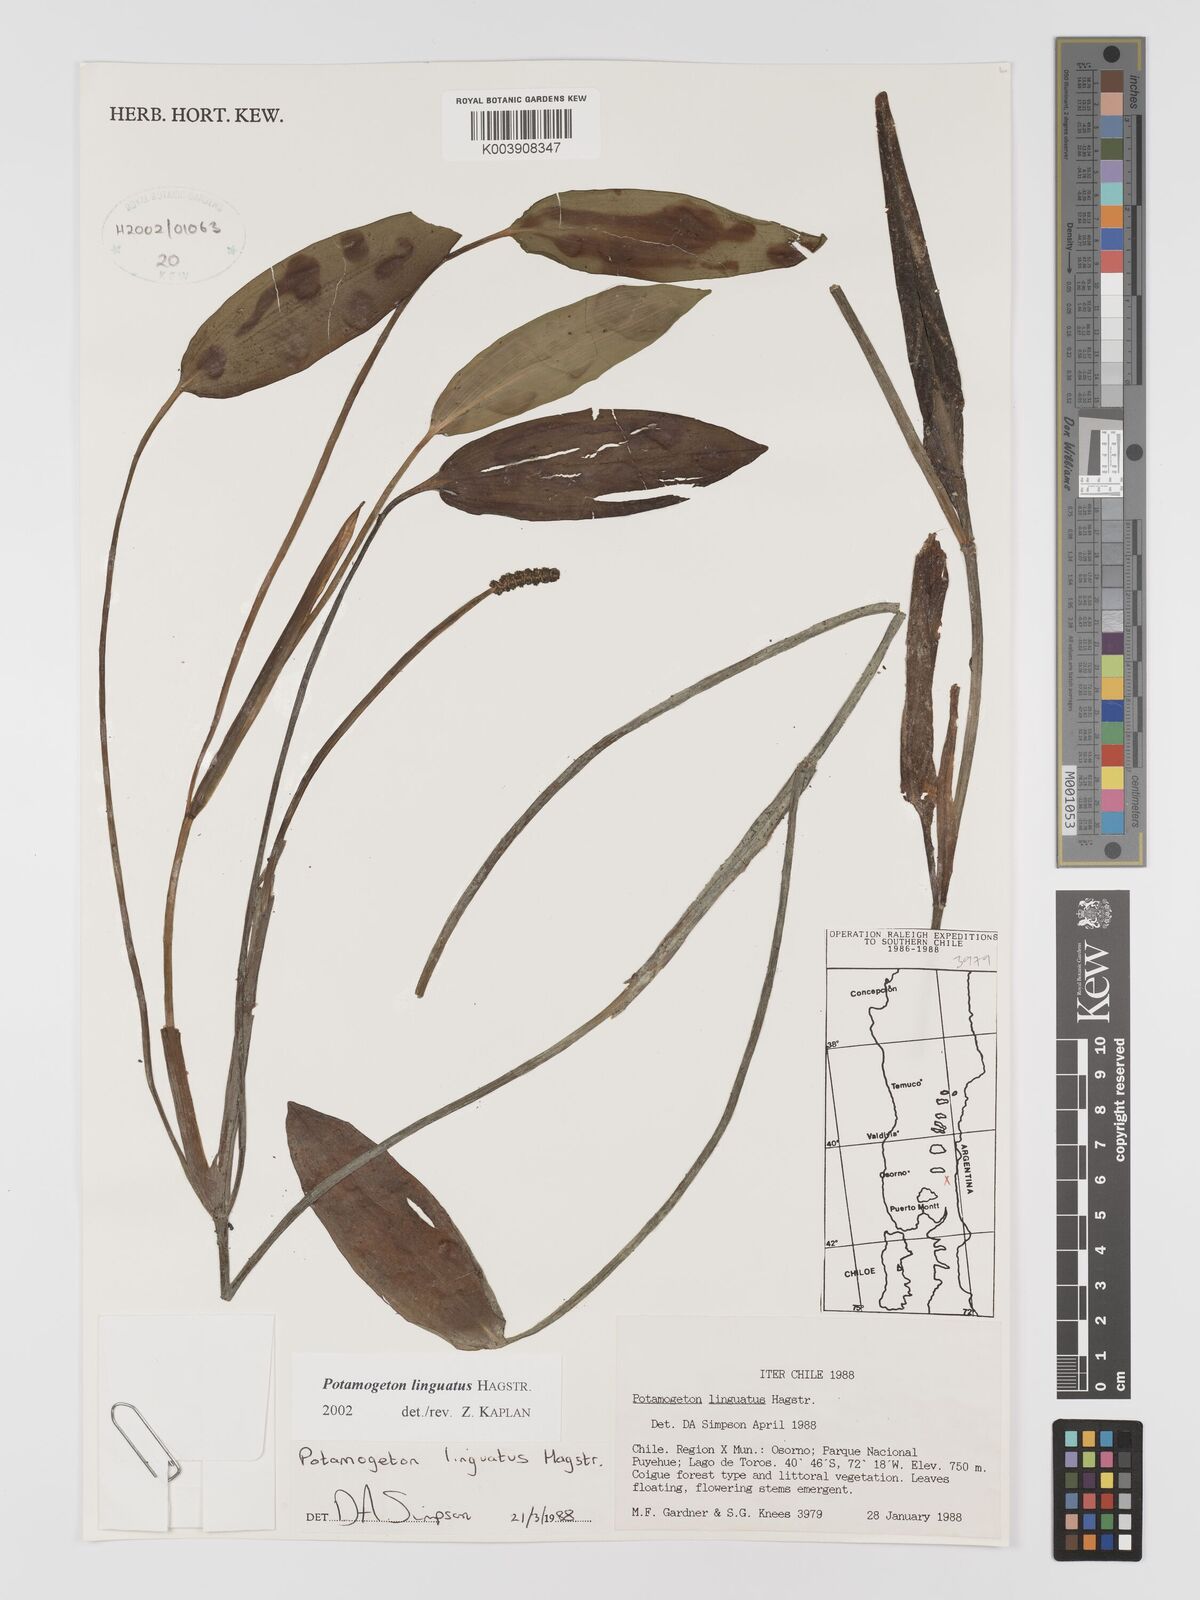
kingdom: Plantae
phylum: Tracheophyta
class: Liliopsida
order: Alismatales
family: Potamogetonaceae
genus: Potamogeton
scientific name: Potamogeton linguatus
